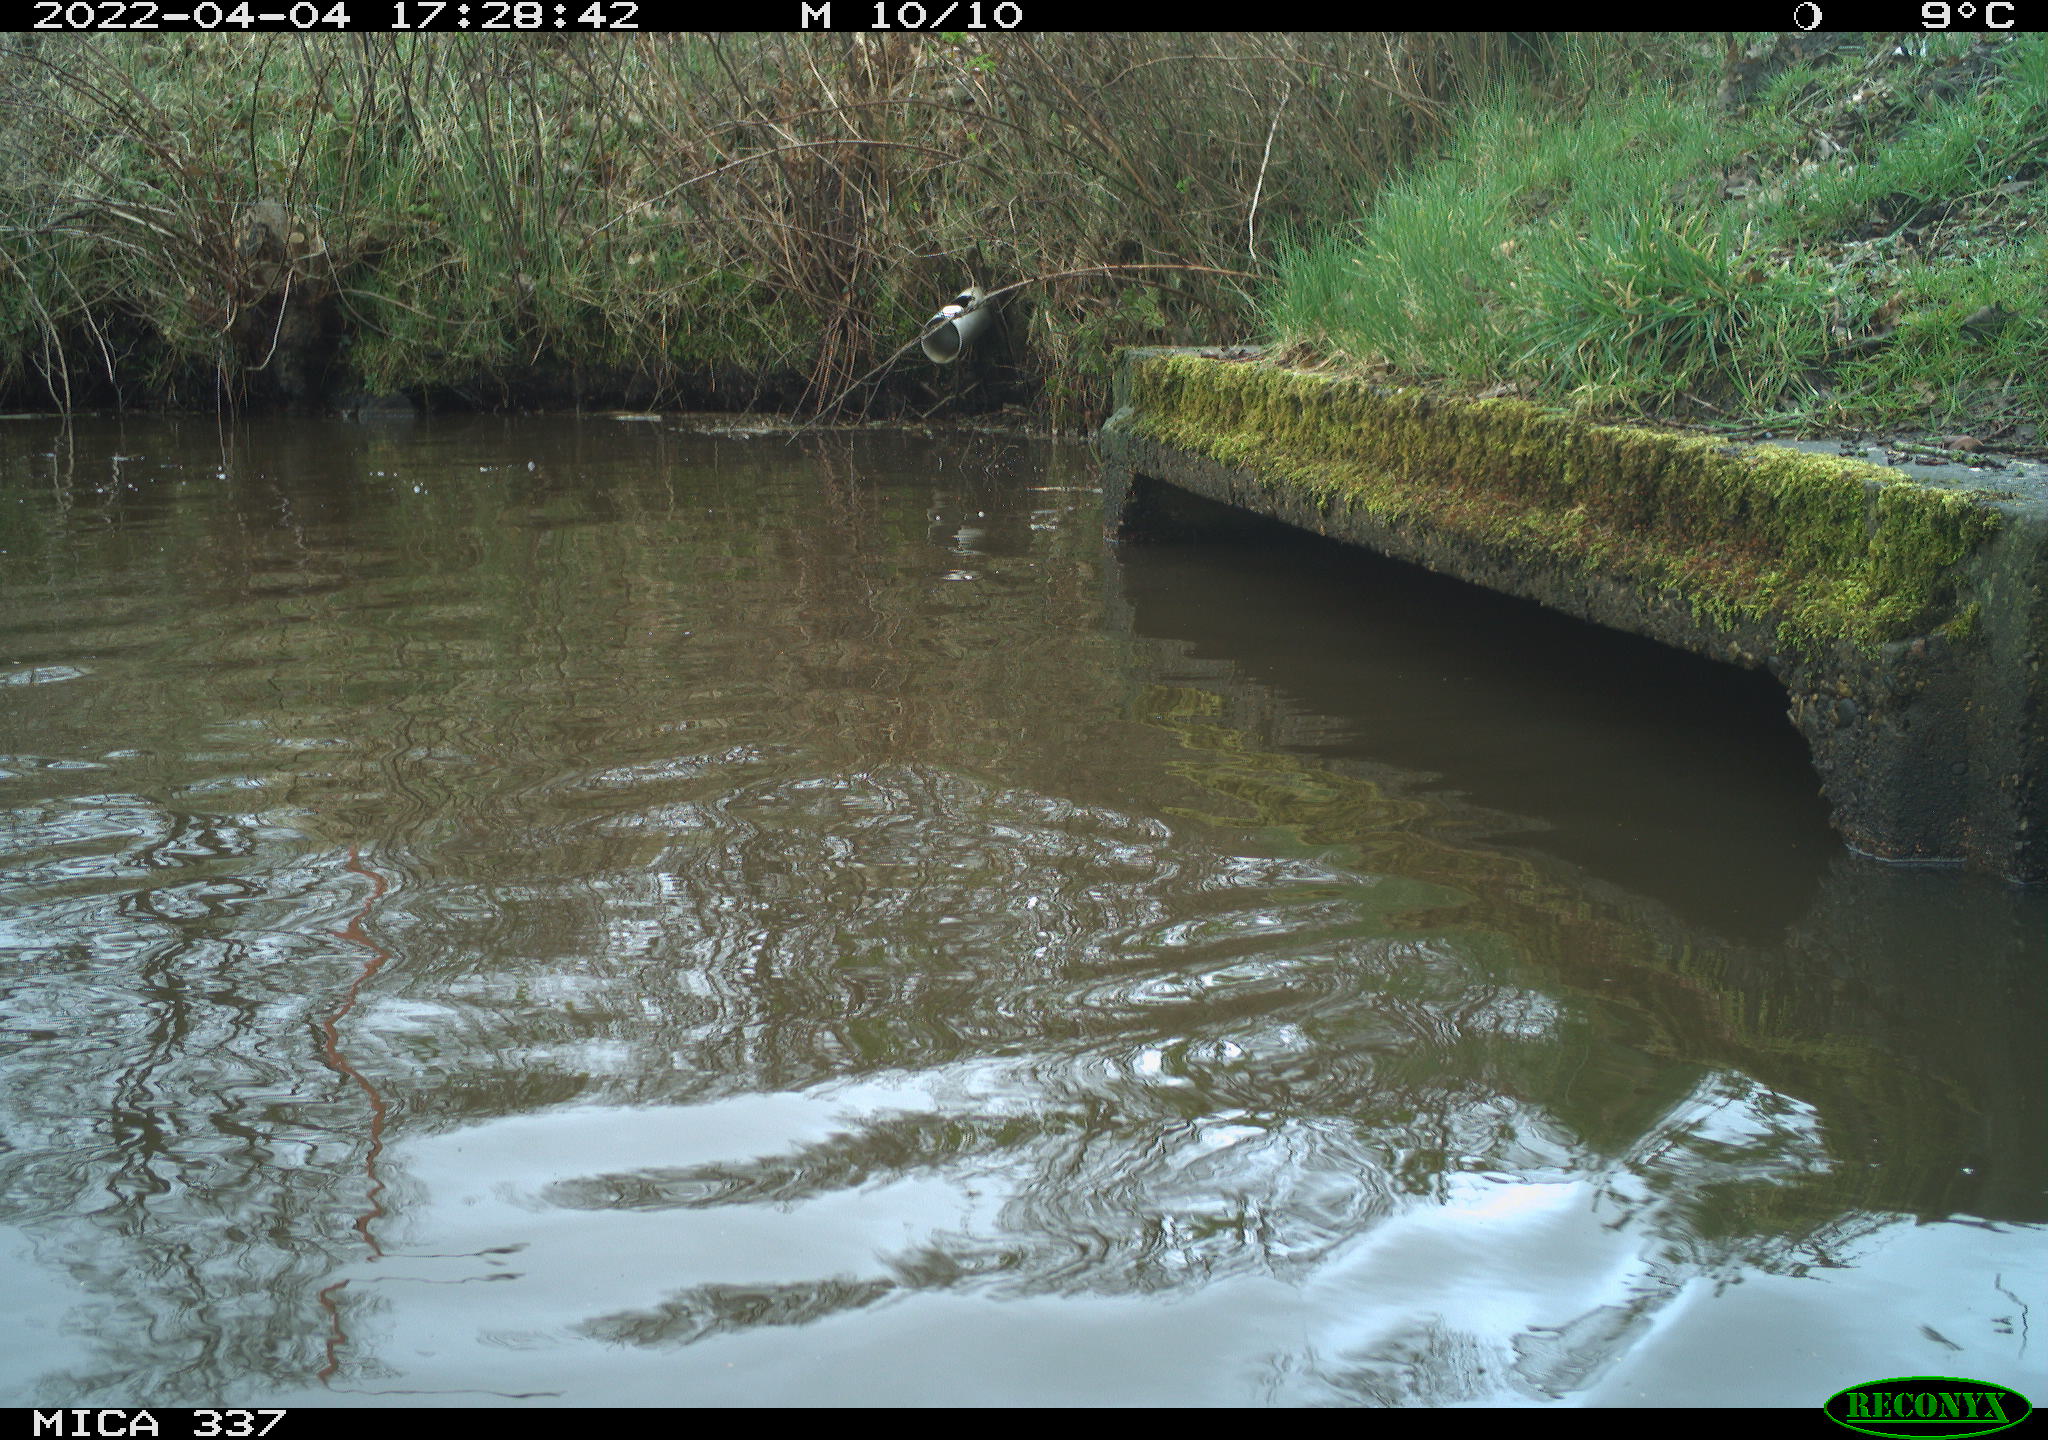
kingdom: Animalia
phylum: Chordata
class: Aves
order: Anseriformes
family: Anatidae
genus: Anas
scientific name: Anas platyrhynchos
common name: Mallard
